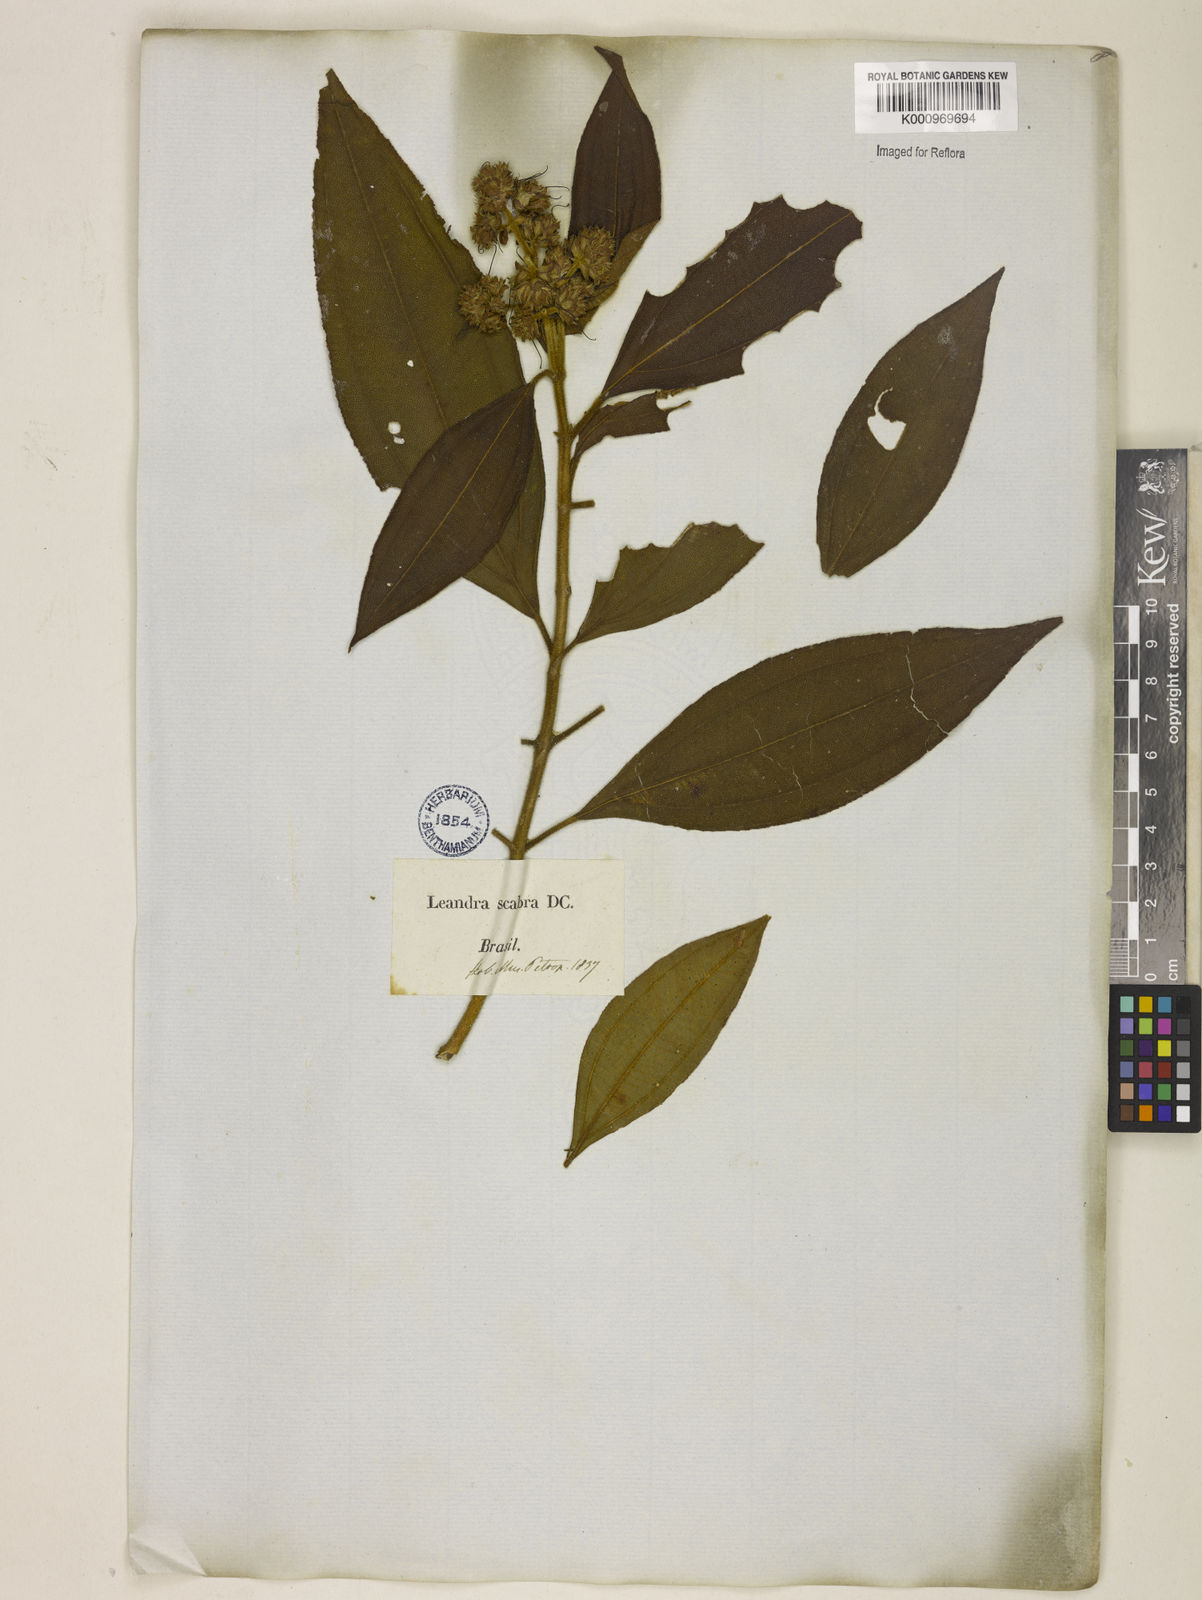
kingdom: Plantae
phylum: Tracheophyta
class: Magnoliopsida
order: Myrtales
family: Melastomataceae
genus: Miconia
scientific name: Miconia melastomoides
